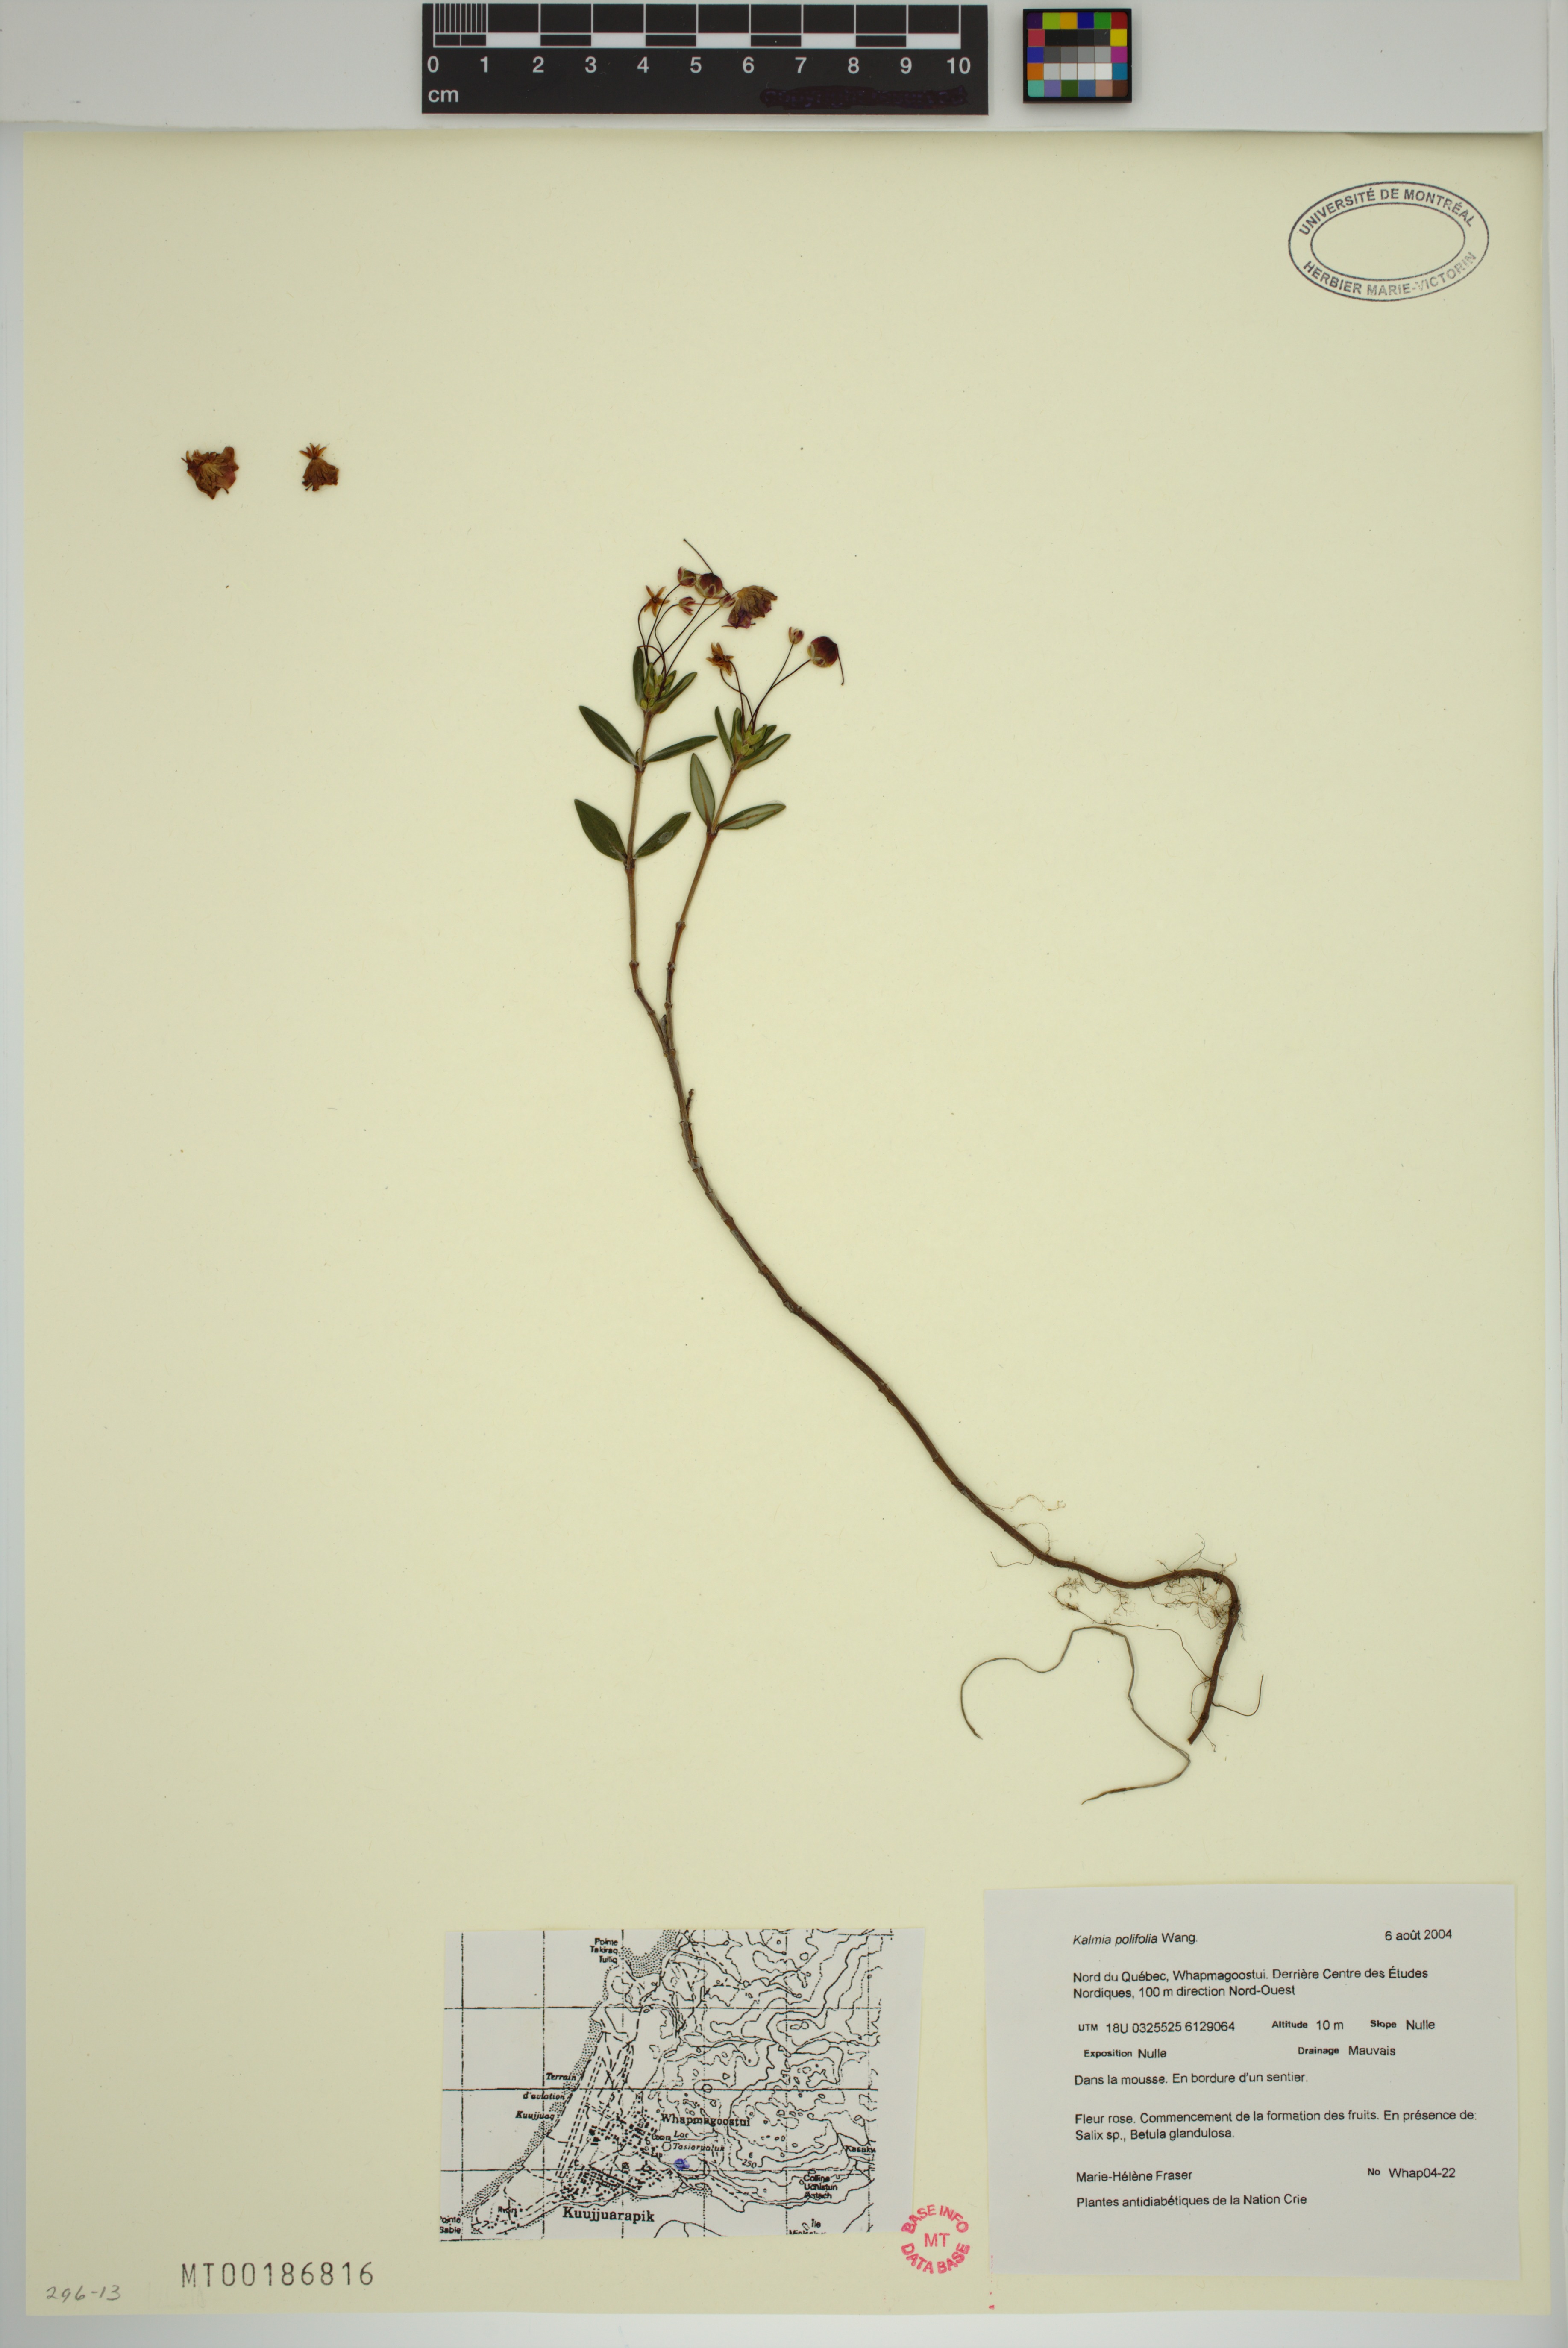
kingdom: Plantae
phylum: Tracheophyta
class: Magnoliopsida
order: Ericales
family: Ericaceae
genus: Kalmia
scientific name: Kalmia polifolia
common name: Bog-laurel
